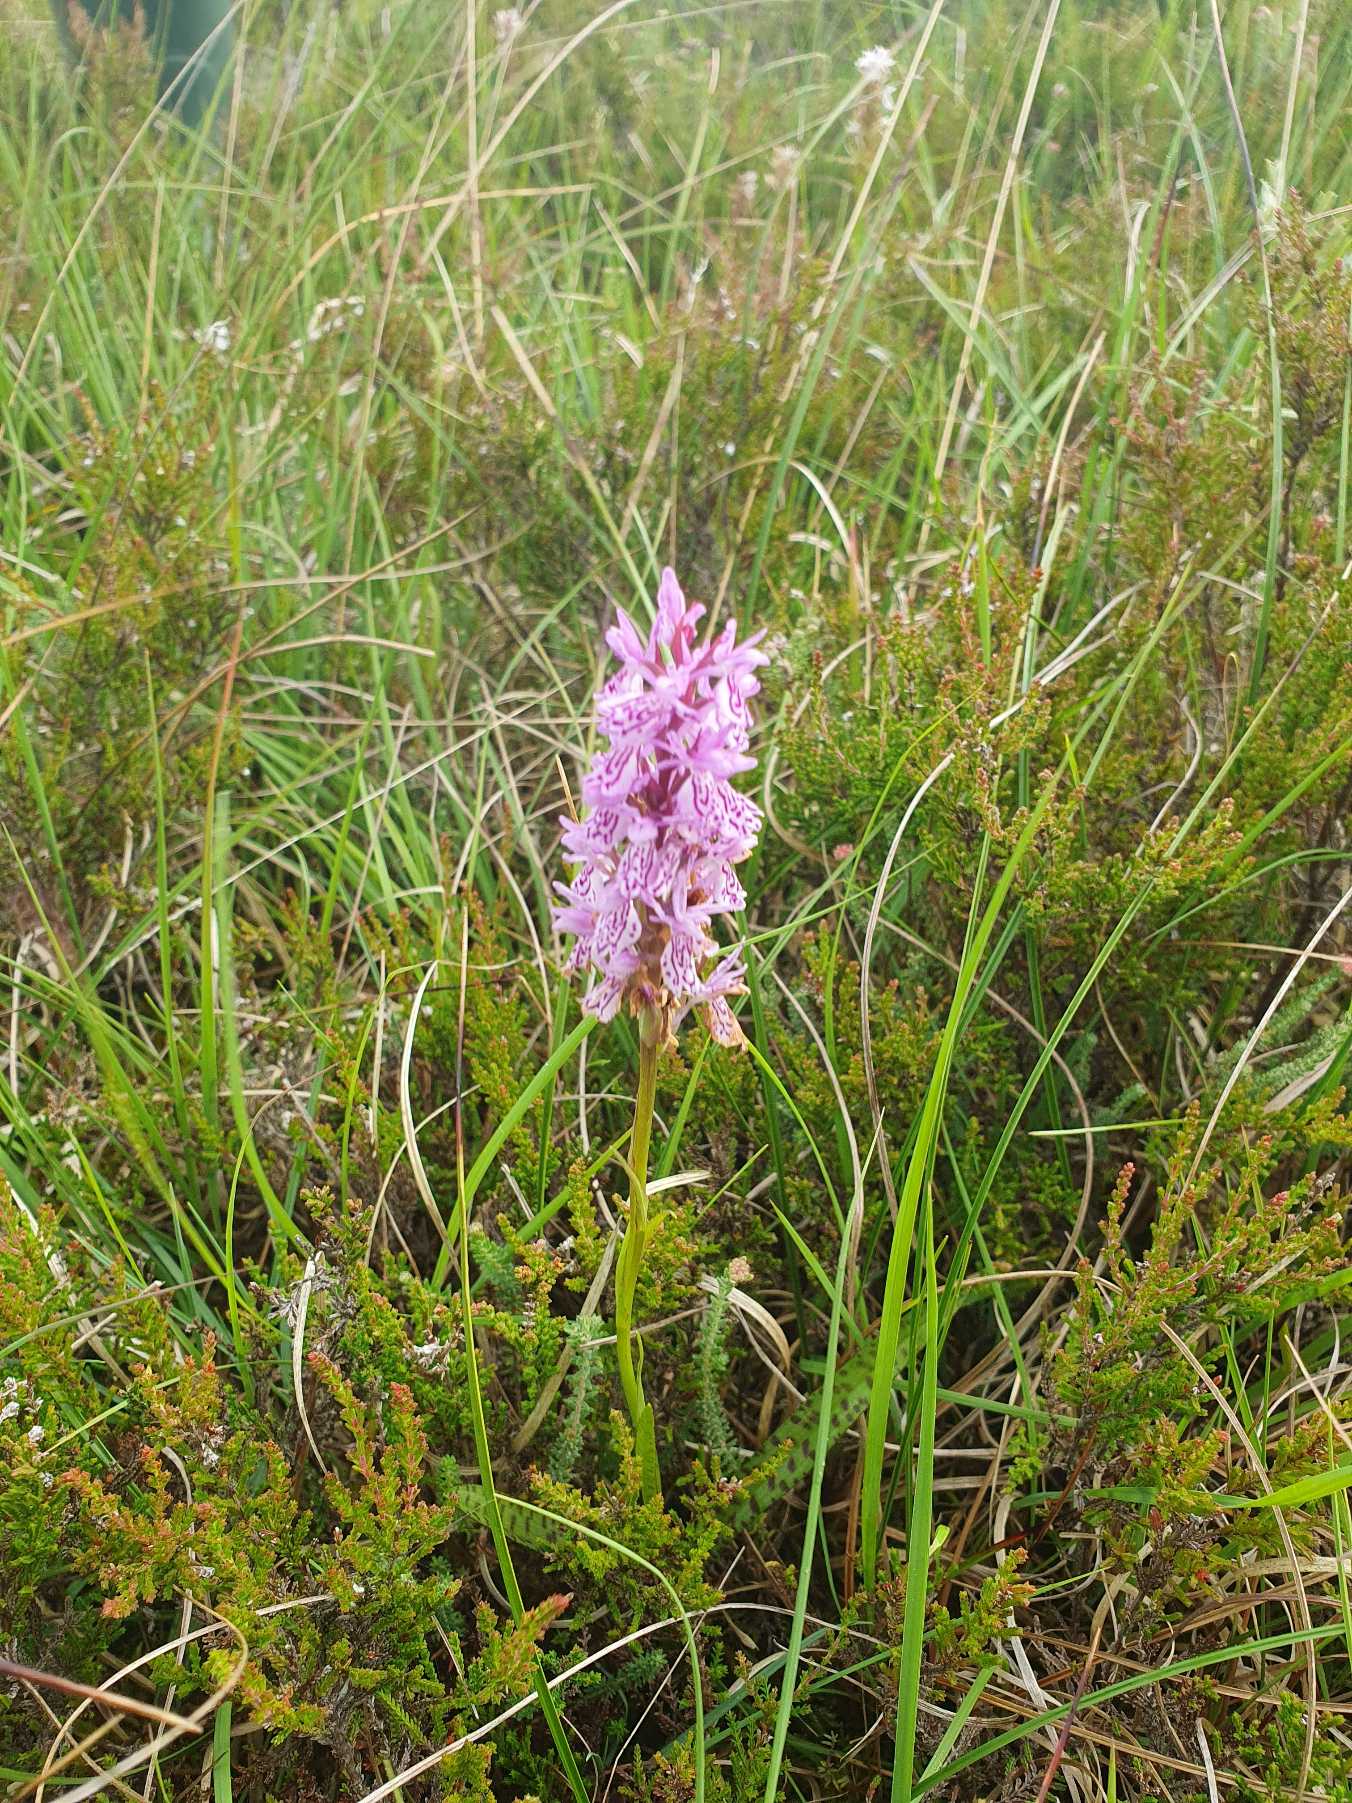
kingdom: Plantae
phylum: Tracheophyta
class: Liliopsida
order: Asparagales
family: Orchidaceae
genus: Dactylorhiza
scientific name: Dactylorhiza maculata
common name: Plettet gøgeurt (underart)
